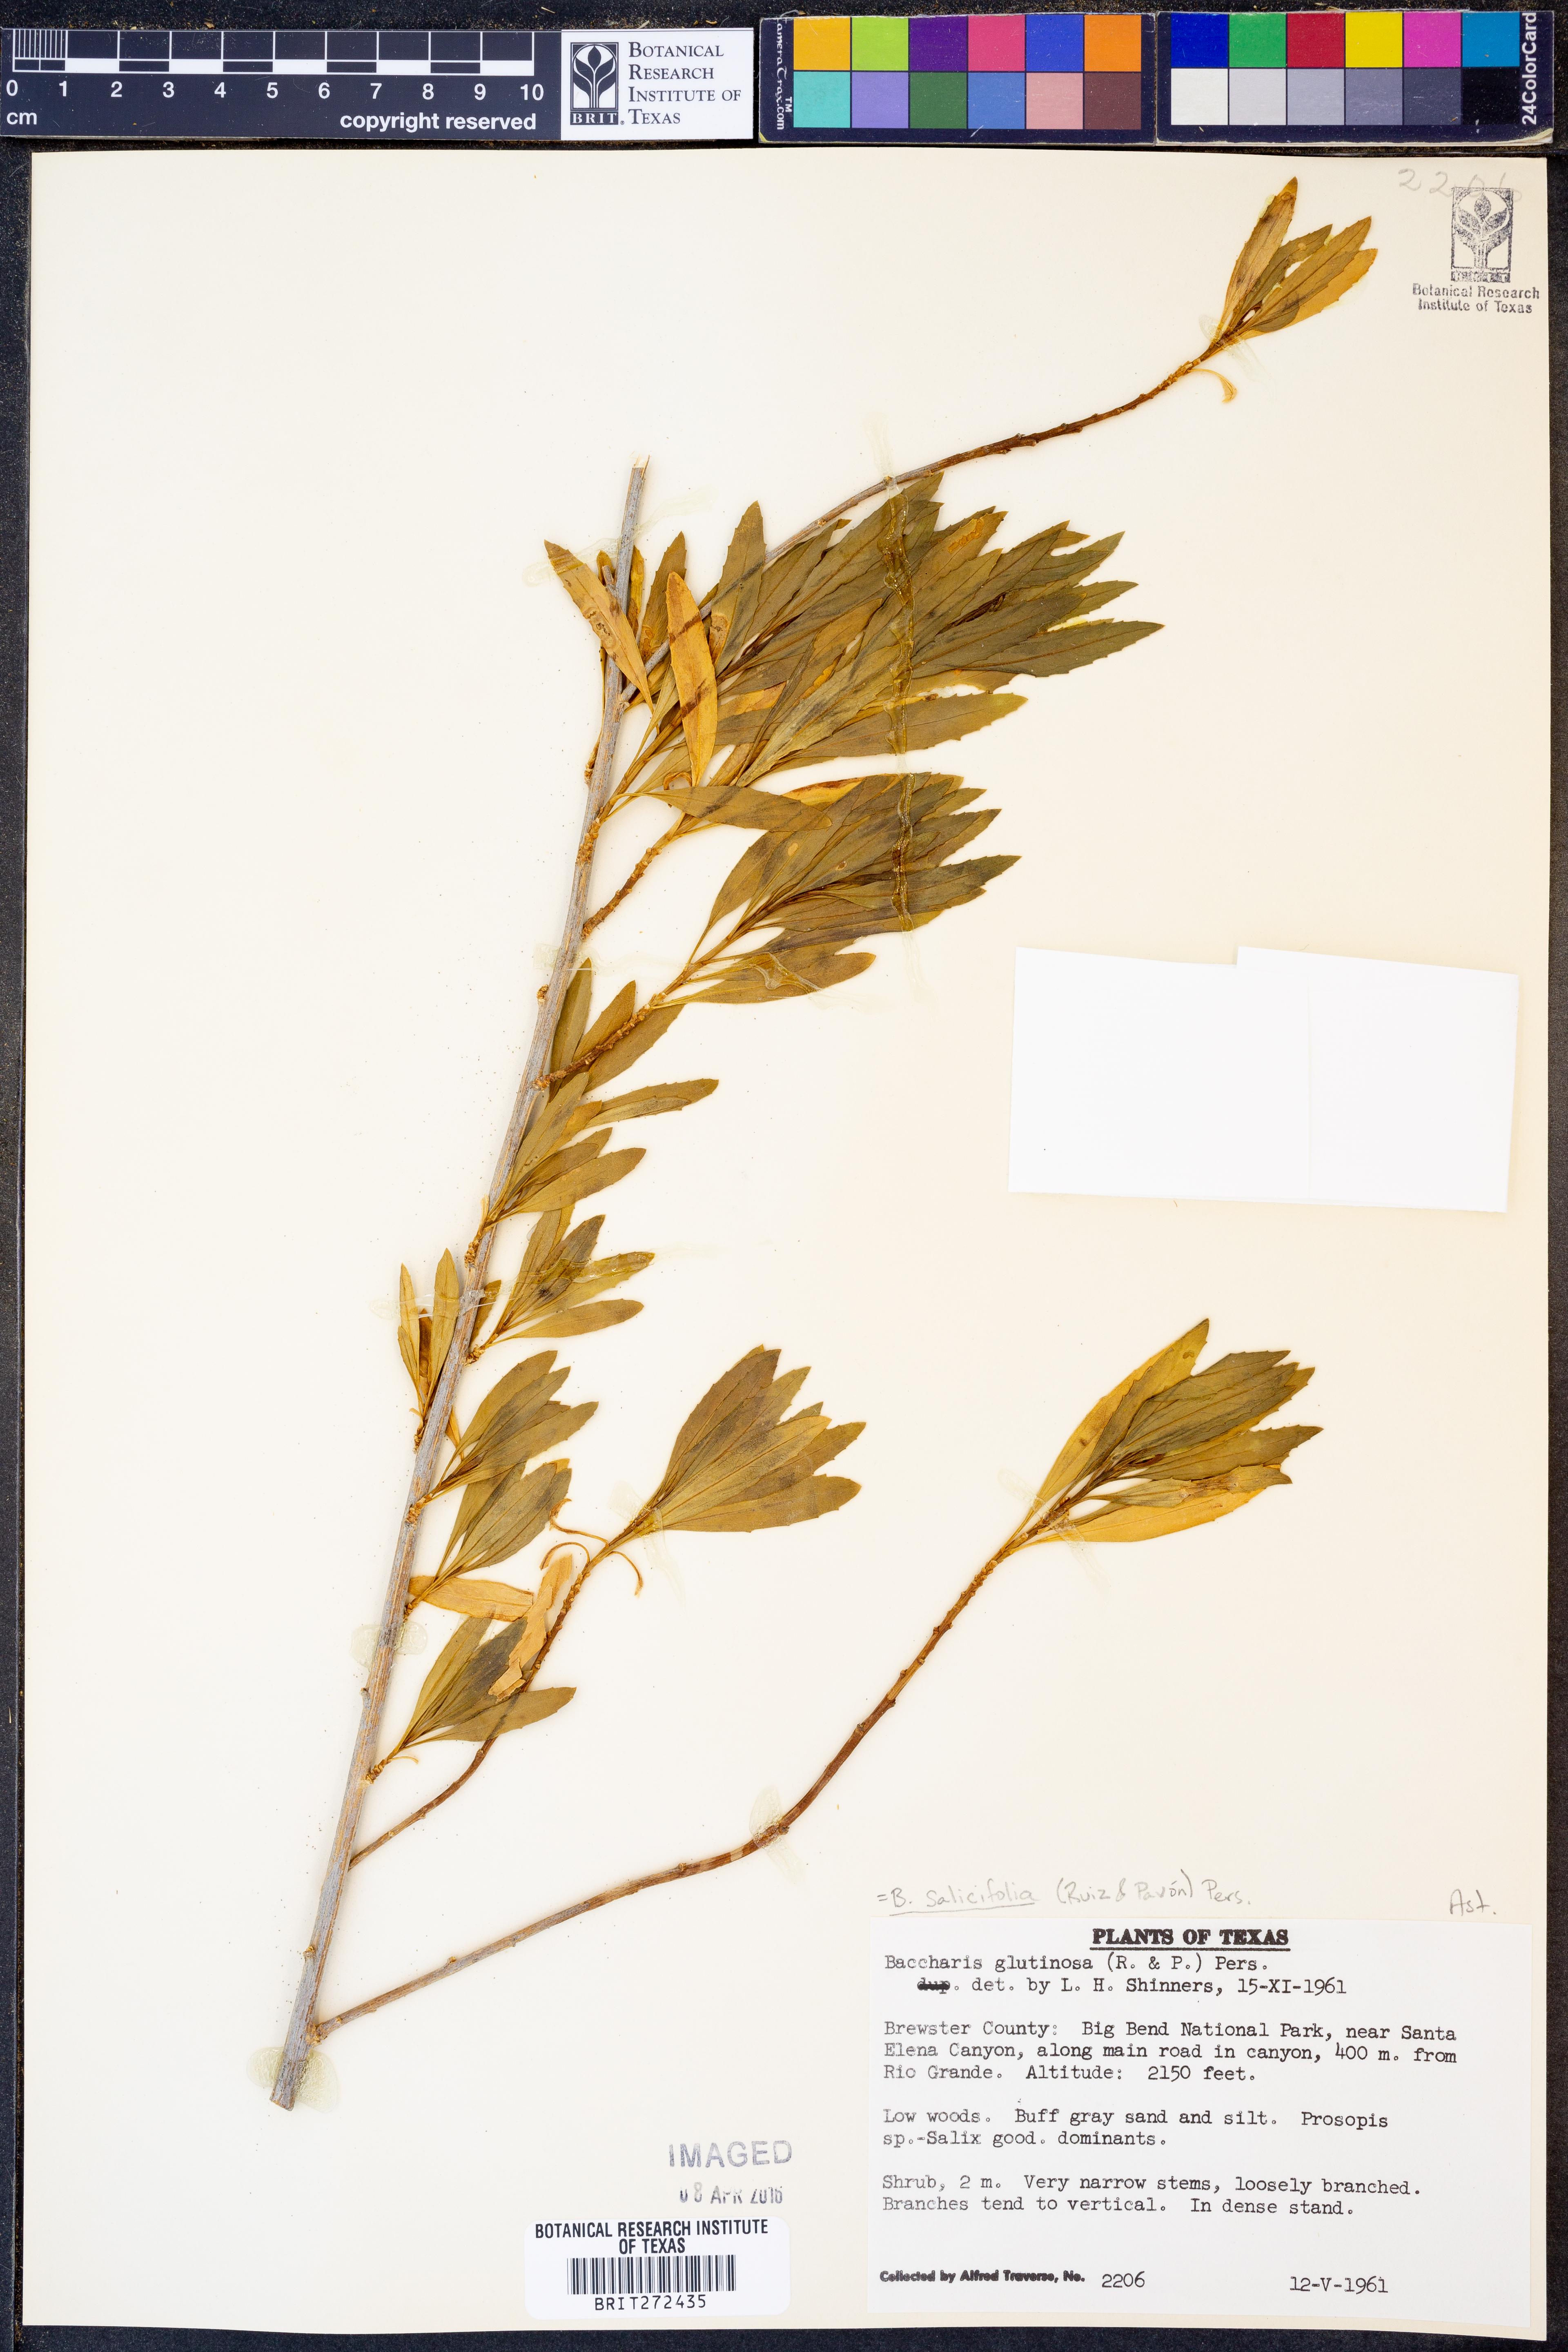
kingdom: Plantae
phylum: Tracheophyta
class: Magnoliopsida
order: Asterales
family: Asteraceae
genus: Baccharis
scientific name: Baccharis salicifolia
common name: Sticky baccharis
